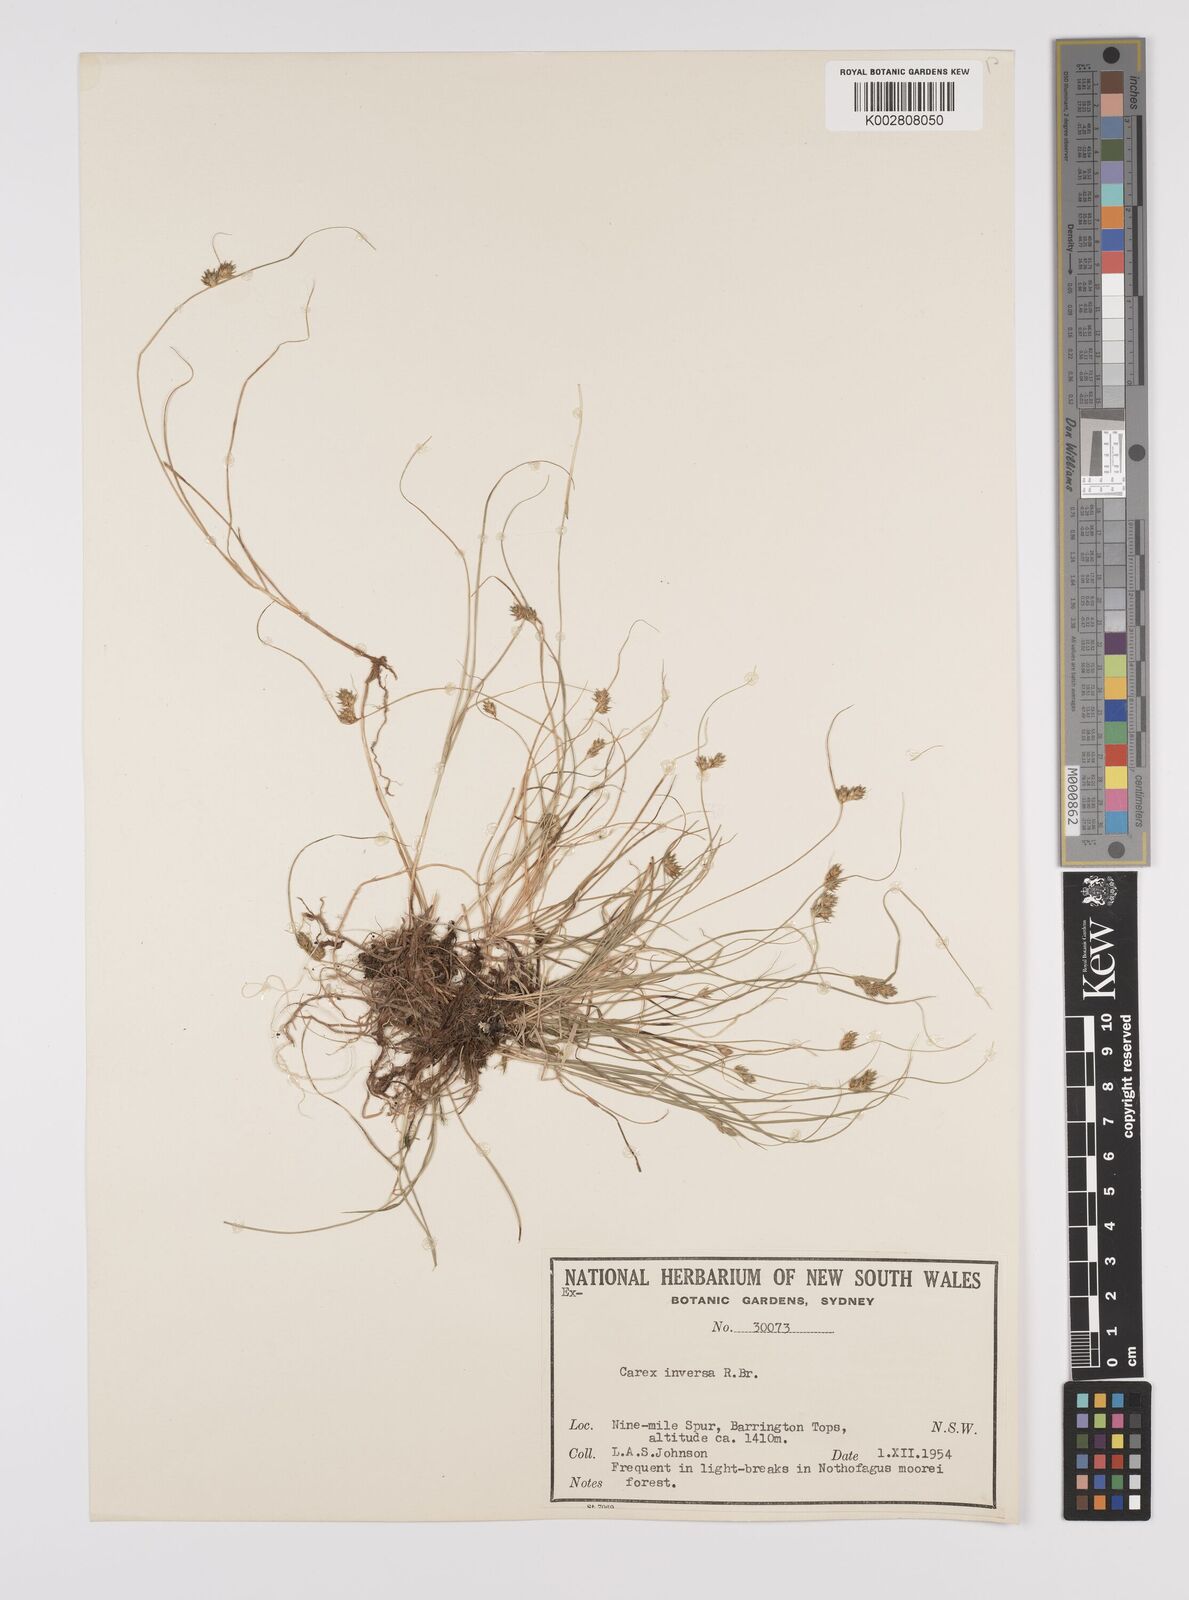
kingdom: Plantae
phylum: Tracheophyta
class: Liliopsida
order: Poales
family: Cyperaceae
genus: Carex
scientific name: Carex inversa
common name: Knob sedge
